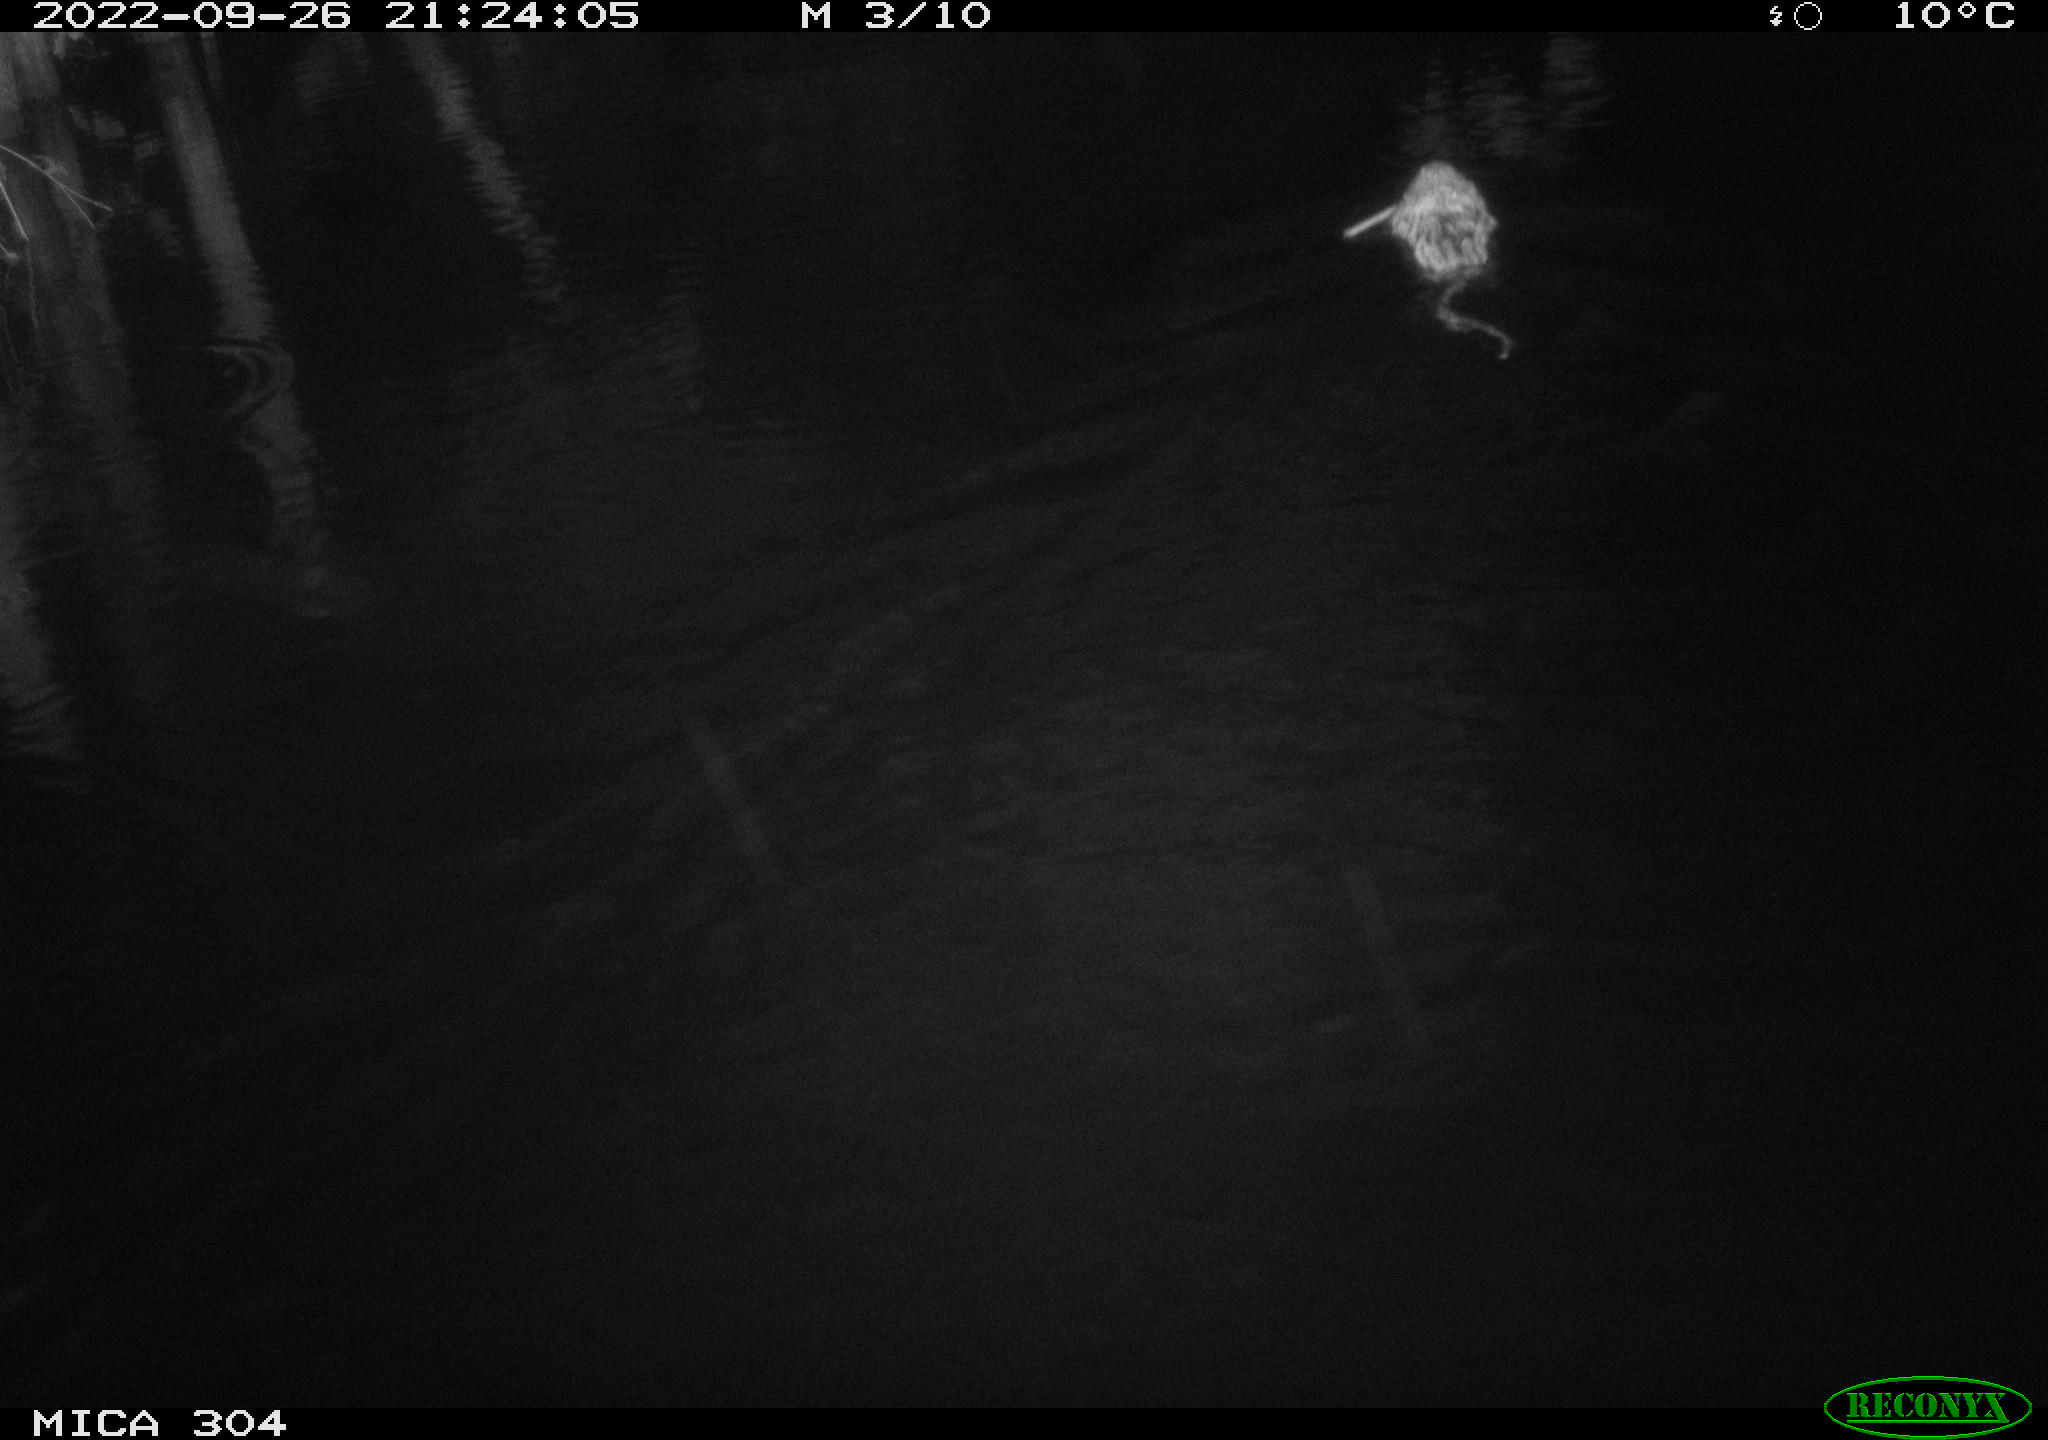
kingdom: Animalia
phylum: Chordata
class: Mammalia
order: Rodentia
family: Cricetidae
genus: Ondatra
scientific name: Ondatra zibethicus
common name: Muskrat
